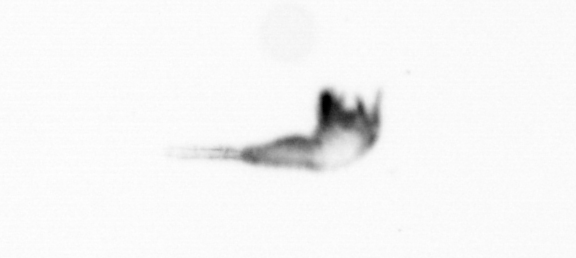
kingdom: Animalia
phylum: Arthropoda
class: Copepoda
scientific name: Copepoda
